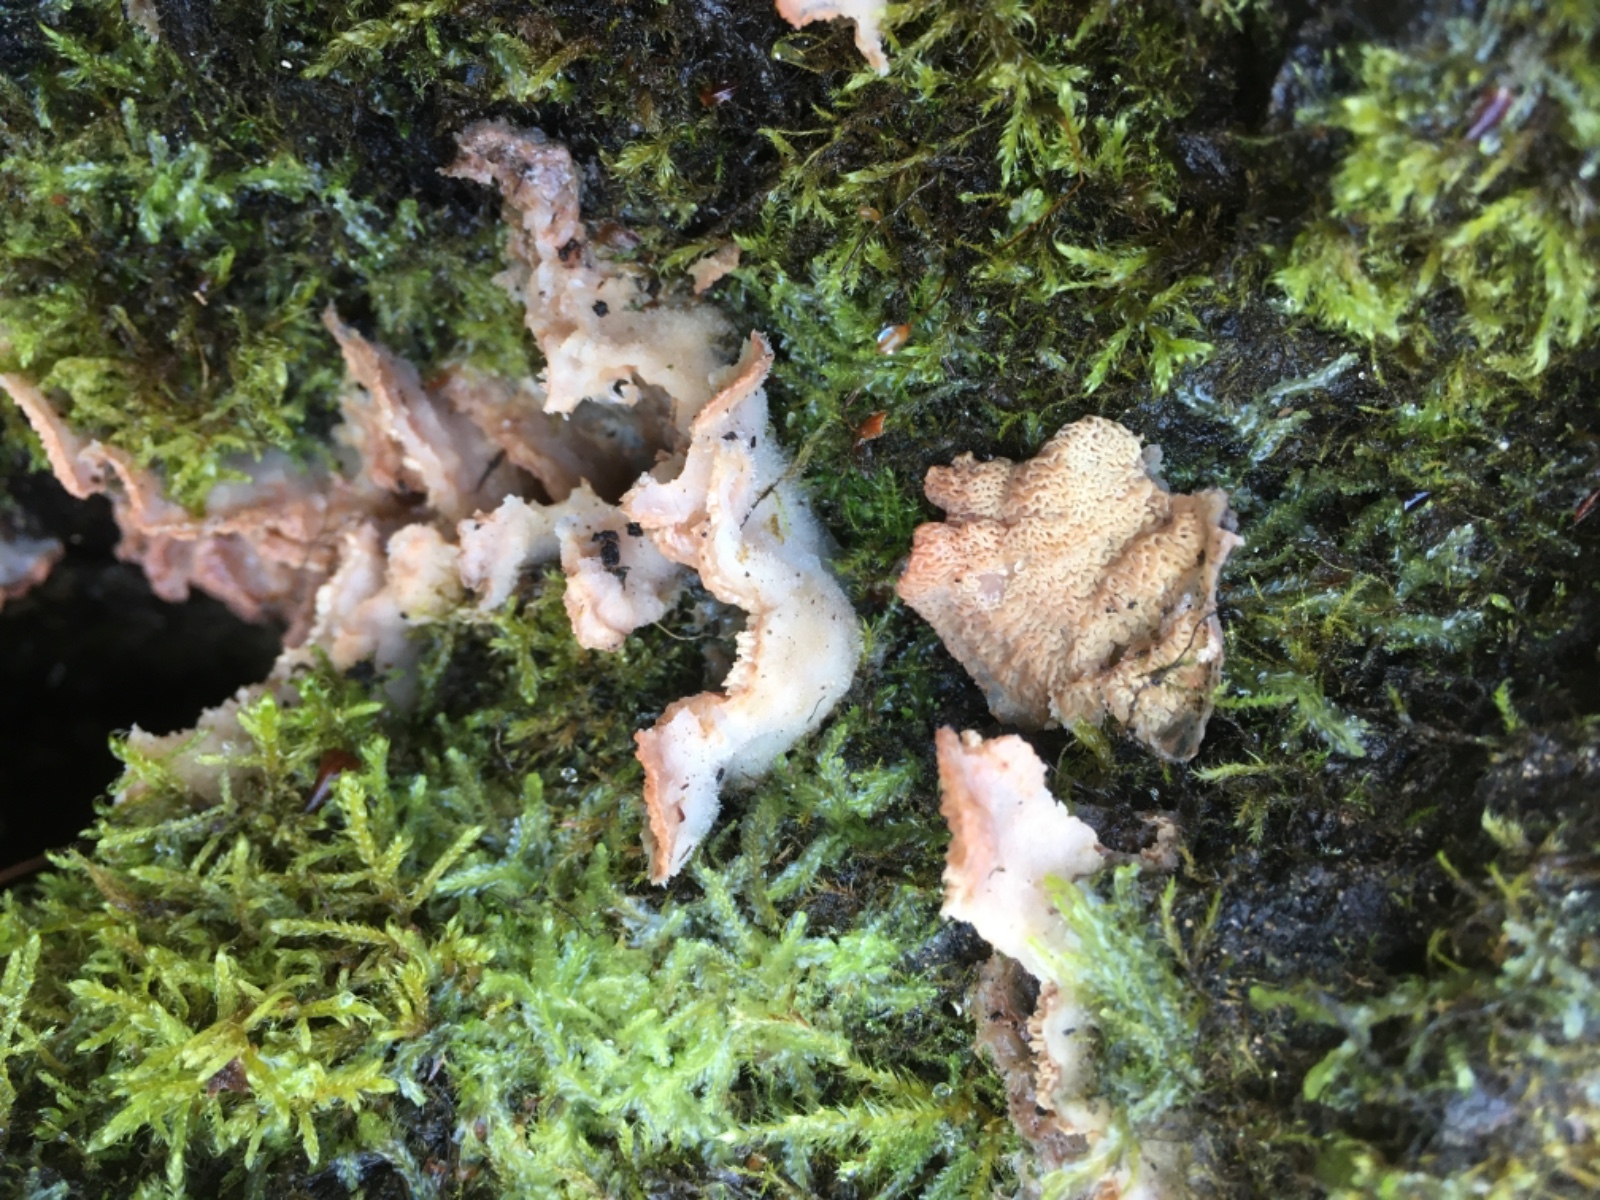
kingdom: Fungi
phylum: Basidiomycota
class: Agaricomycetes
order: Polyporales
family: Meruliaceae
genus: Phlebia
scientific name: Phlebia tremellosa
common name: bævrende åresvamp
